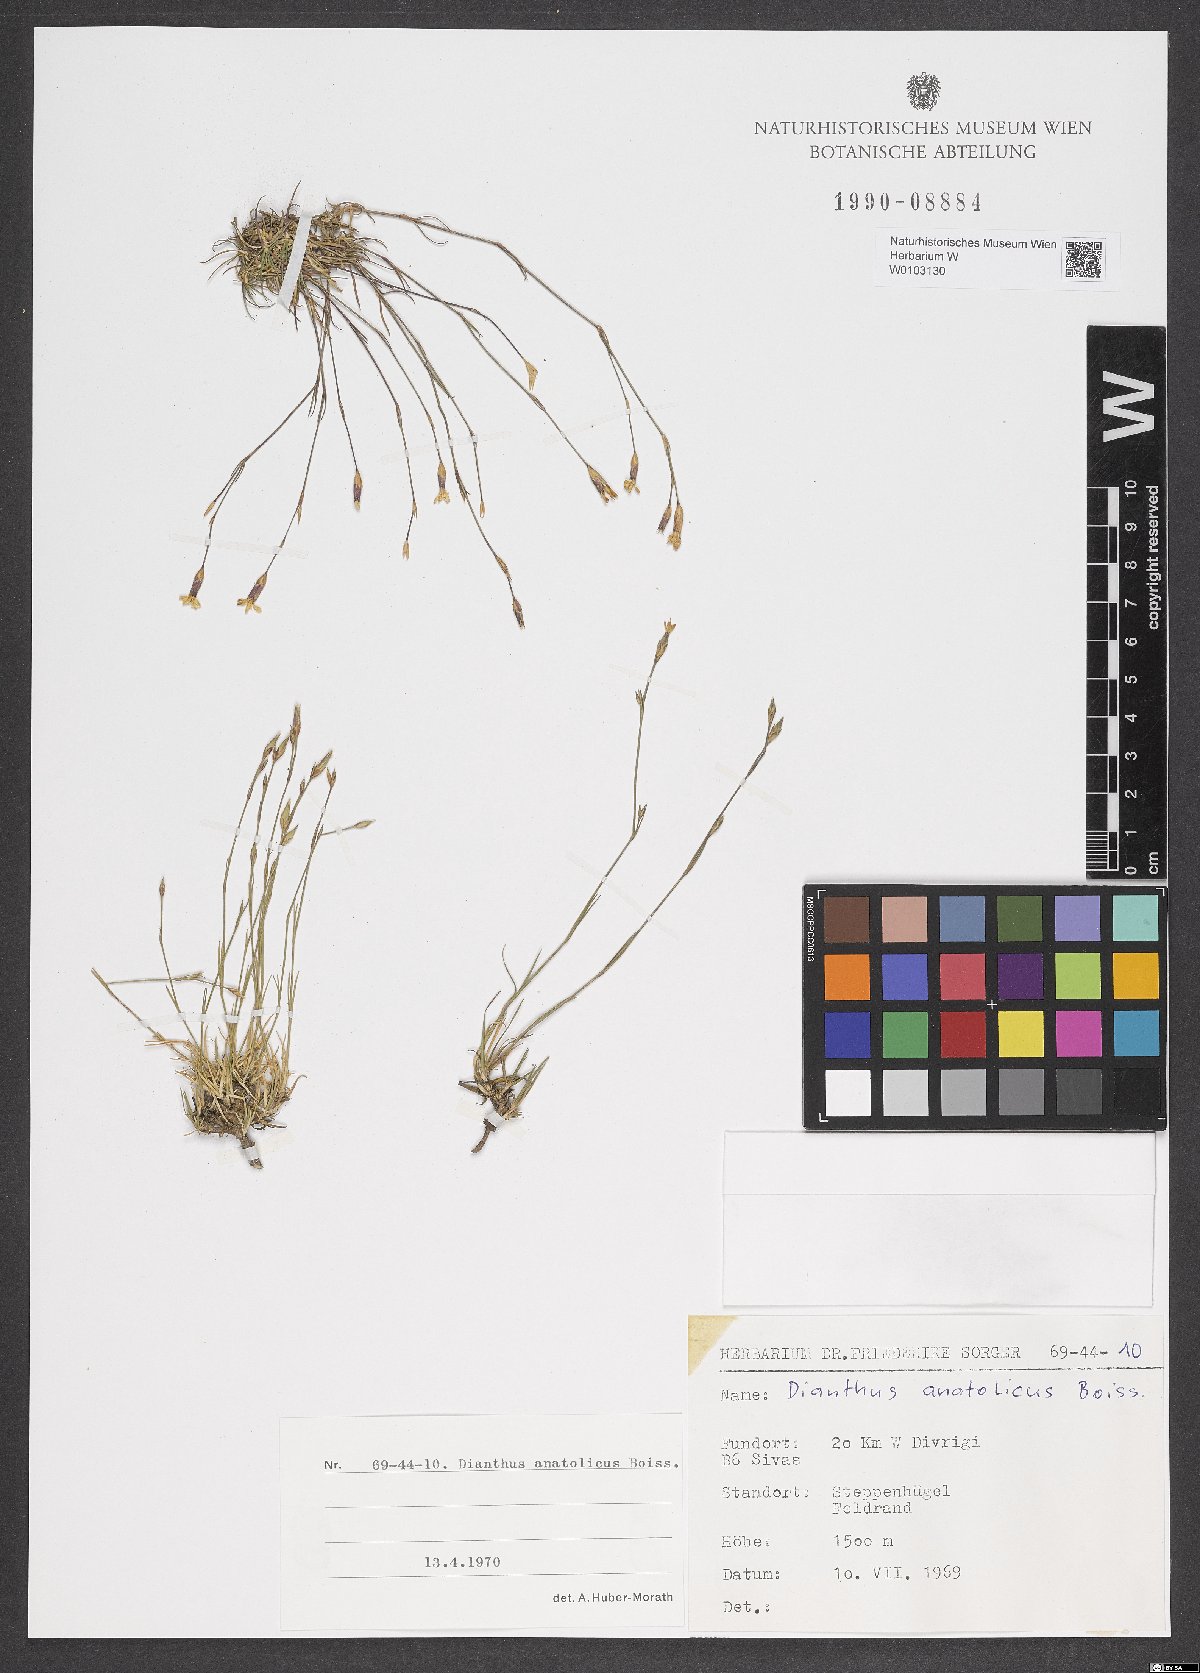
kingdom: Plantae
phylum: Tracheophyta
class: Magnoliopsida
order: Caryophyllales
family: Caryophyllaceae
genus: Dianthus
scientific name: Dianthus anatolicus
